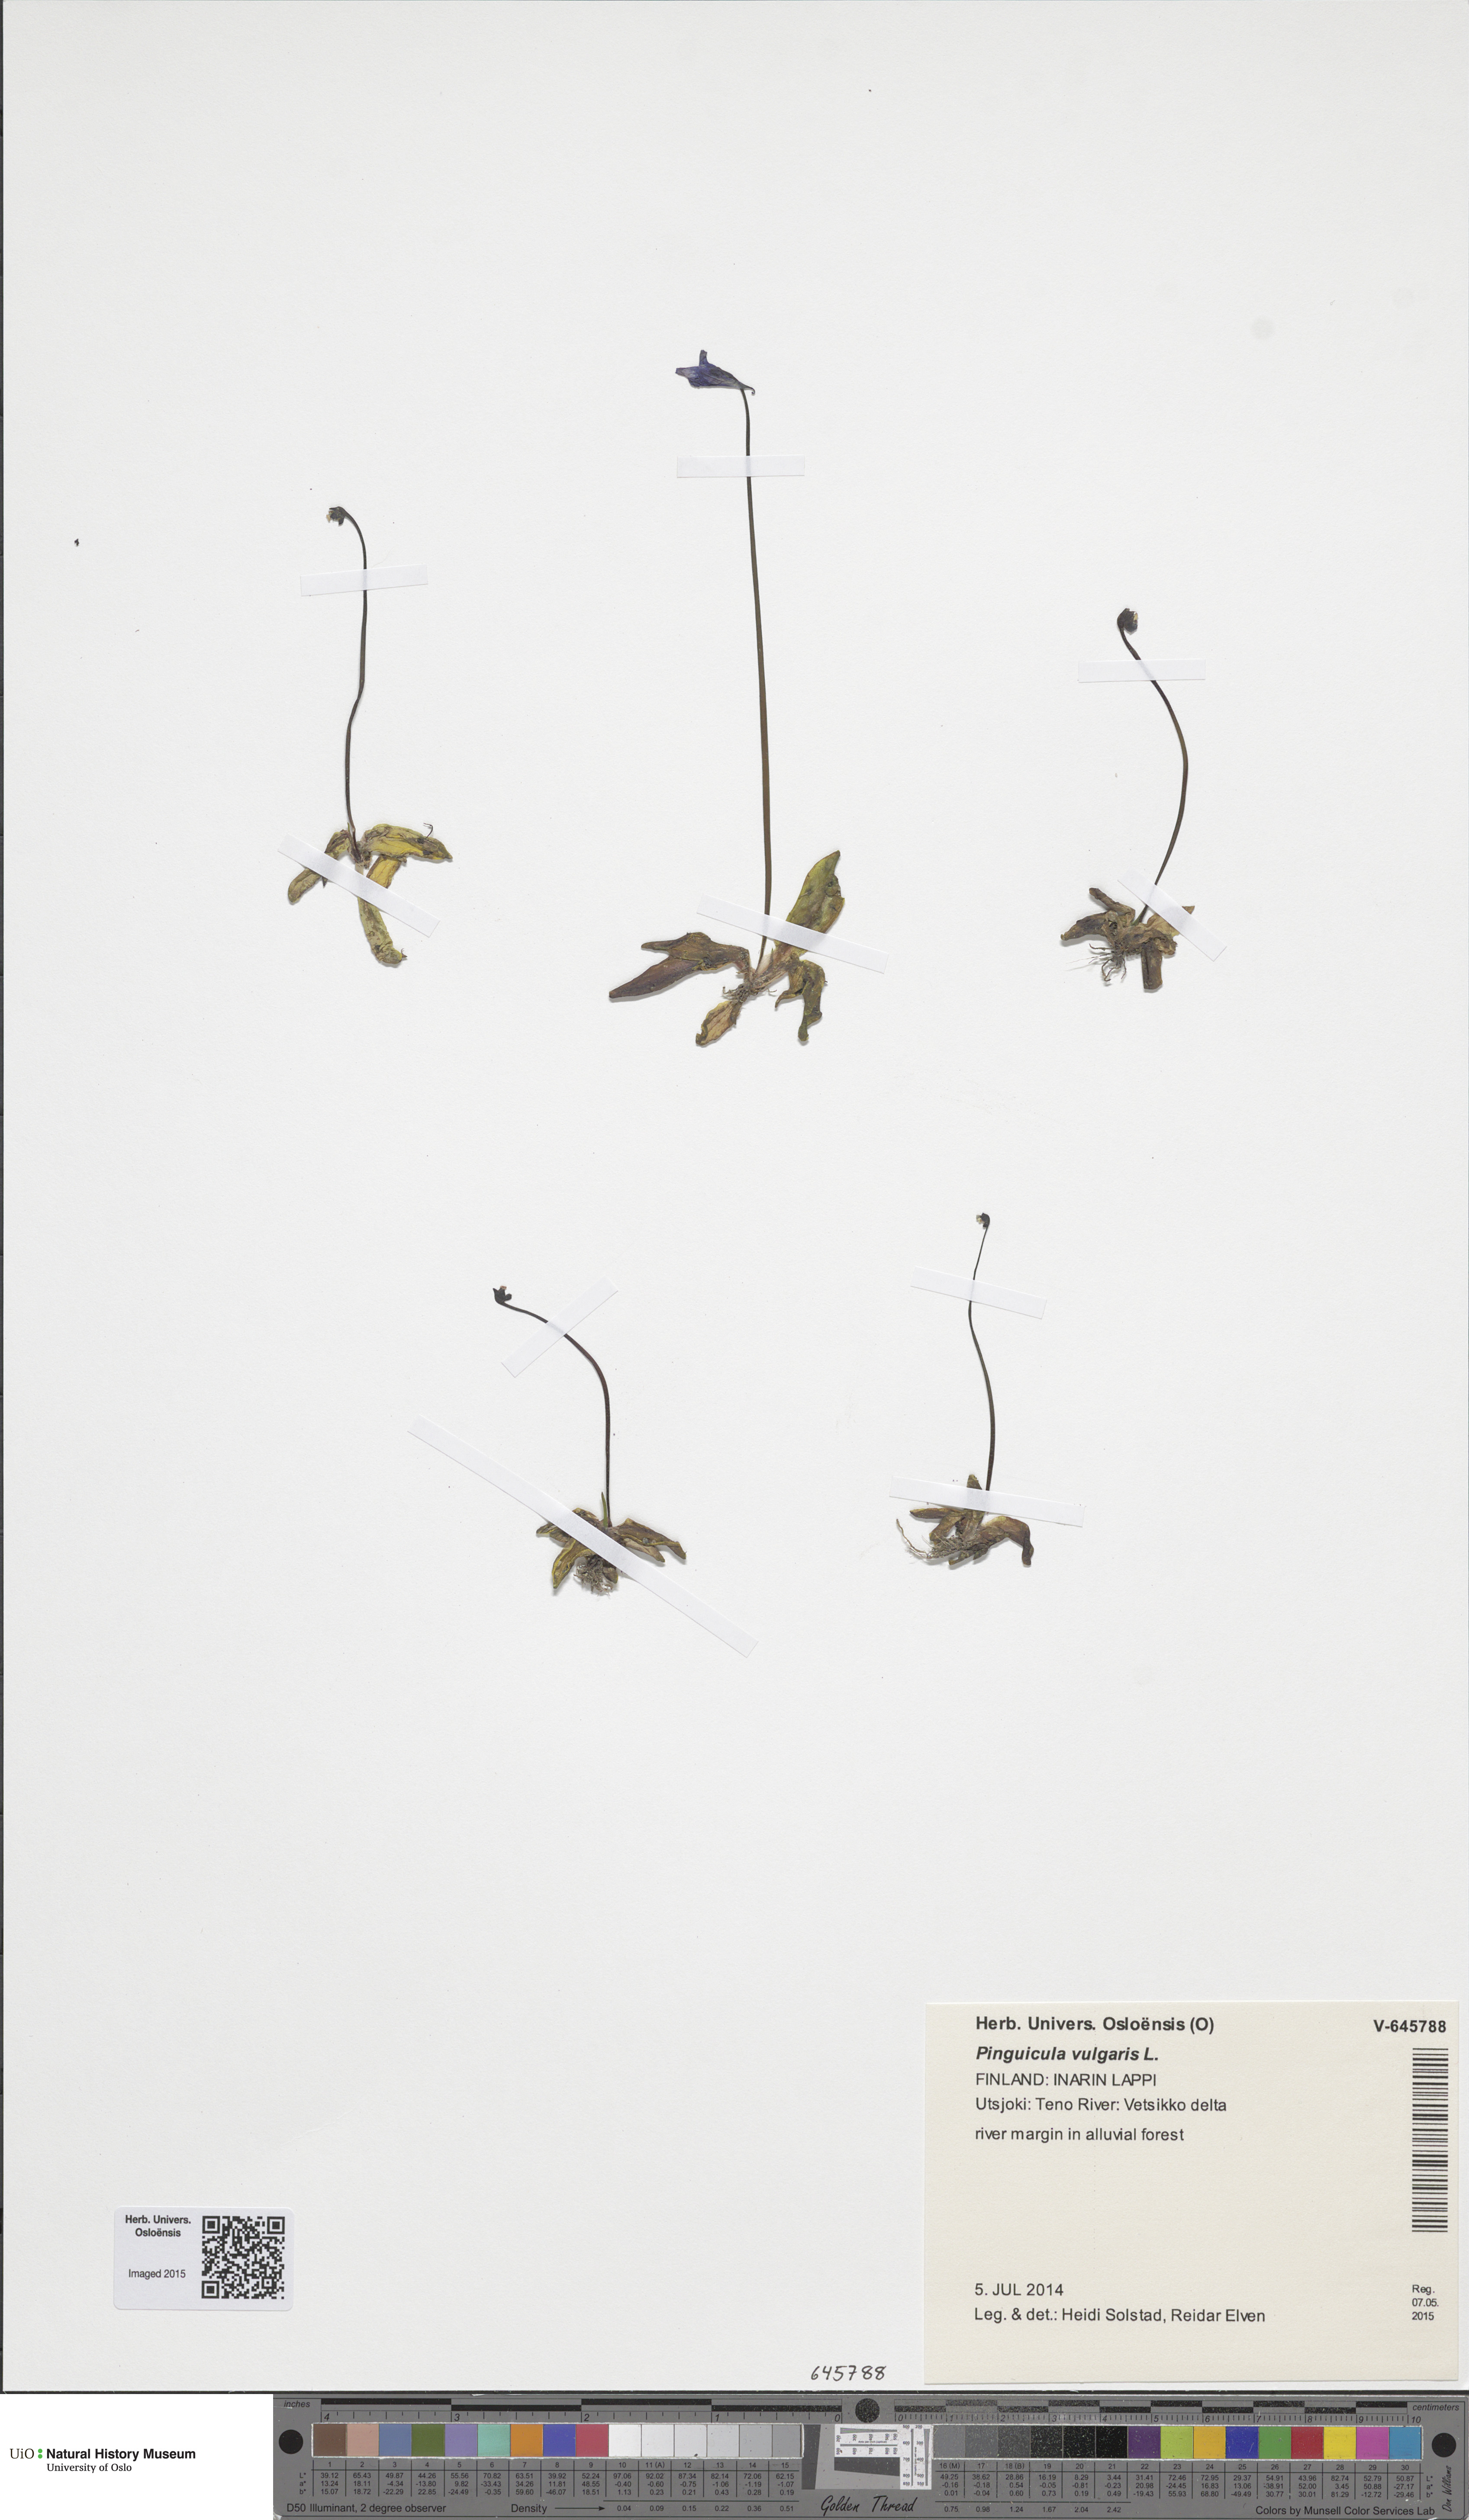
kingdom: Plantae
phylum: Tracheophyta
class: Magnoliopsida
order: Lamiales
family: Lentibulariaceae
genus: Pinguicula
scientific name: Pinguicula vulgaris
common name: Common butterwort
